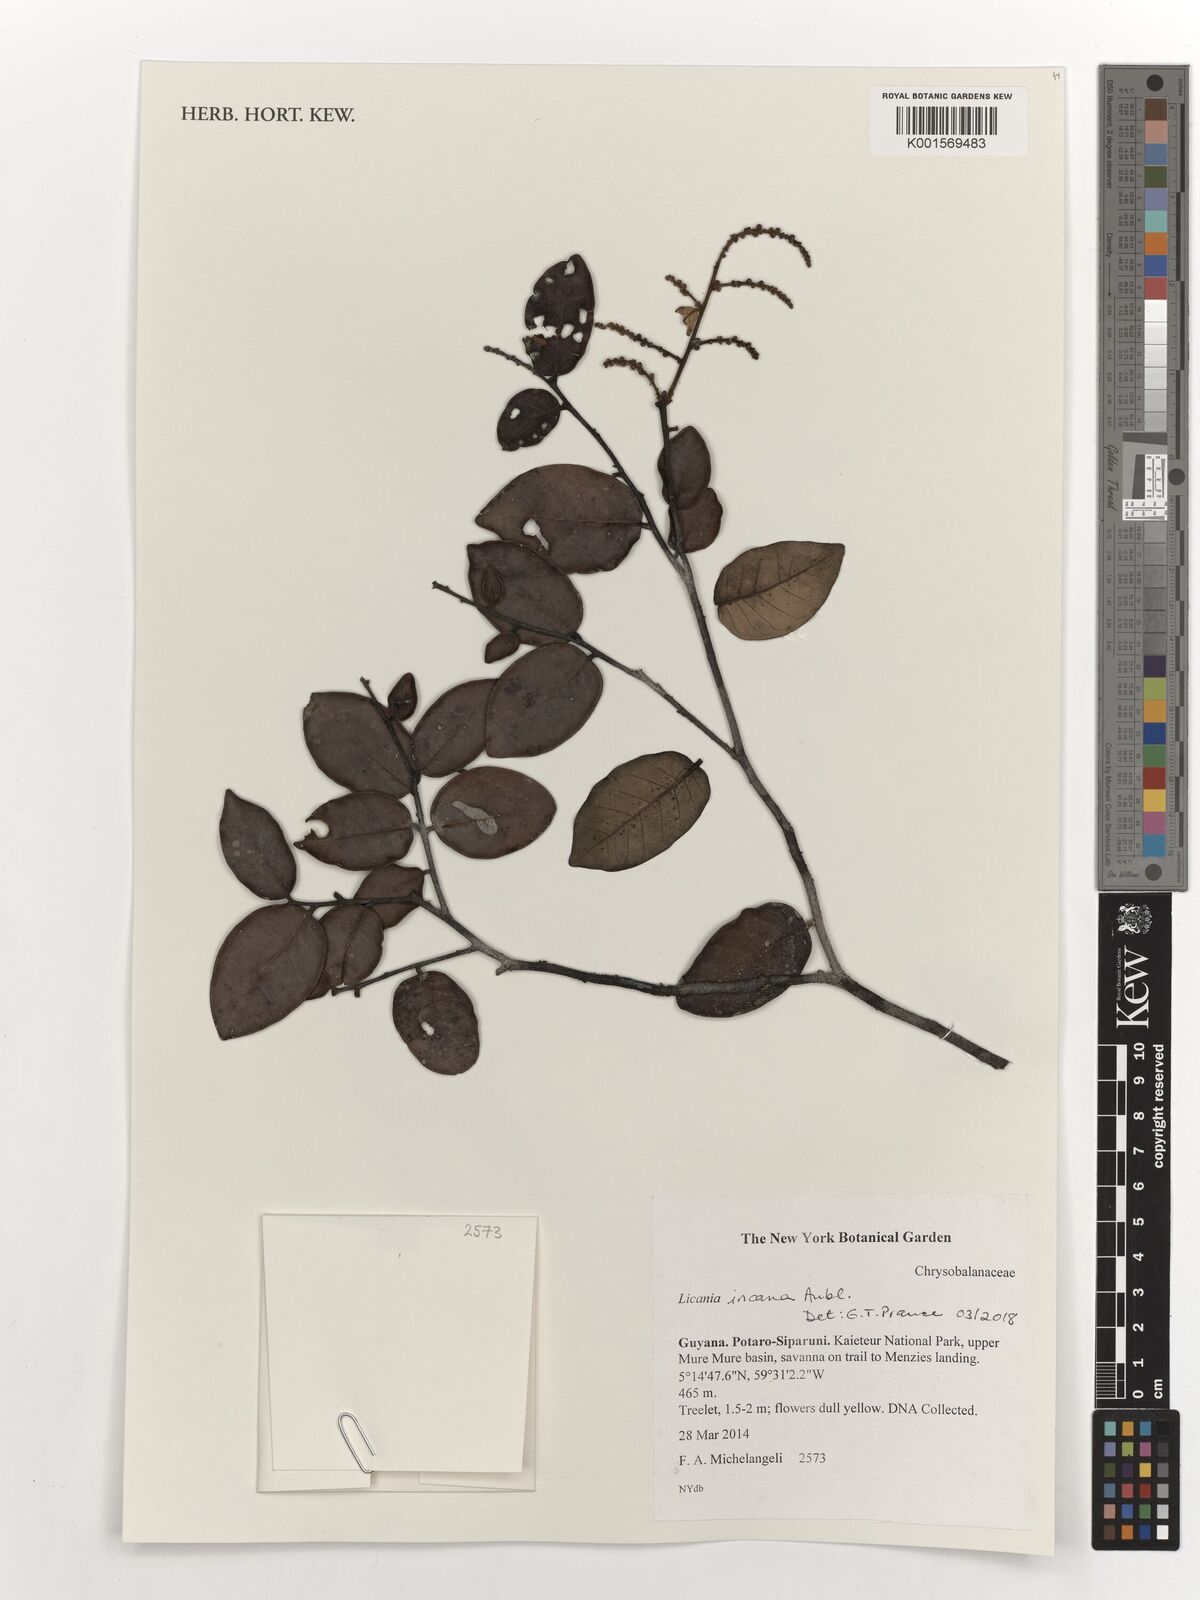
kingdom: Plantae
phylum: Tracheophyta
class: Magnoliopsida
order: Malpighiales
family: Chrysobalanaceae
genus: Licania
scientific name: Licania incana
